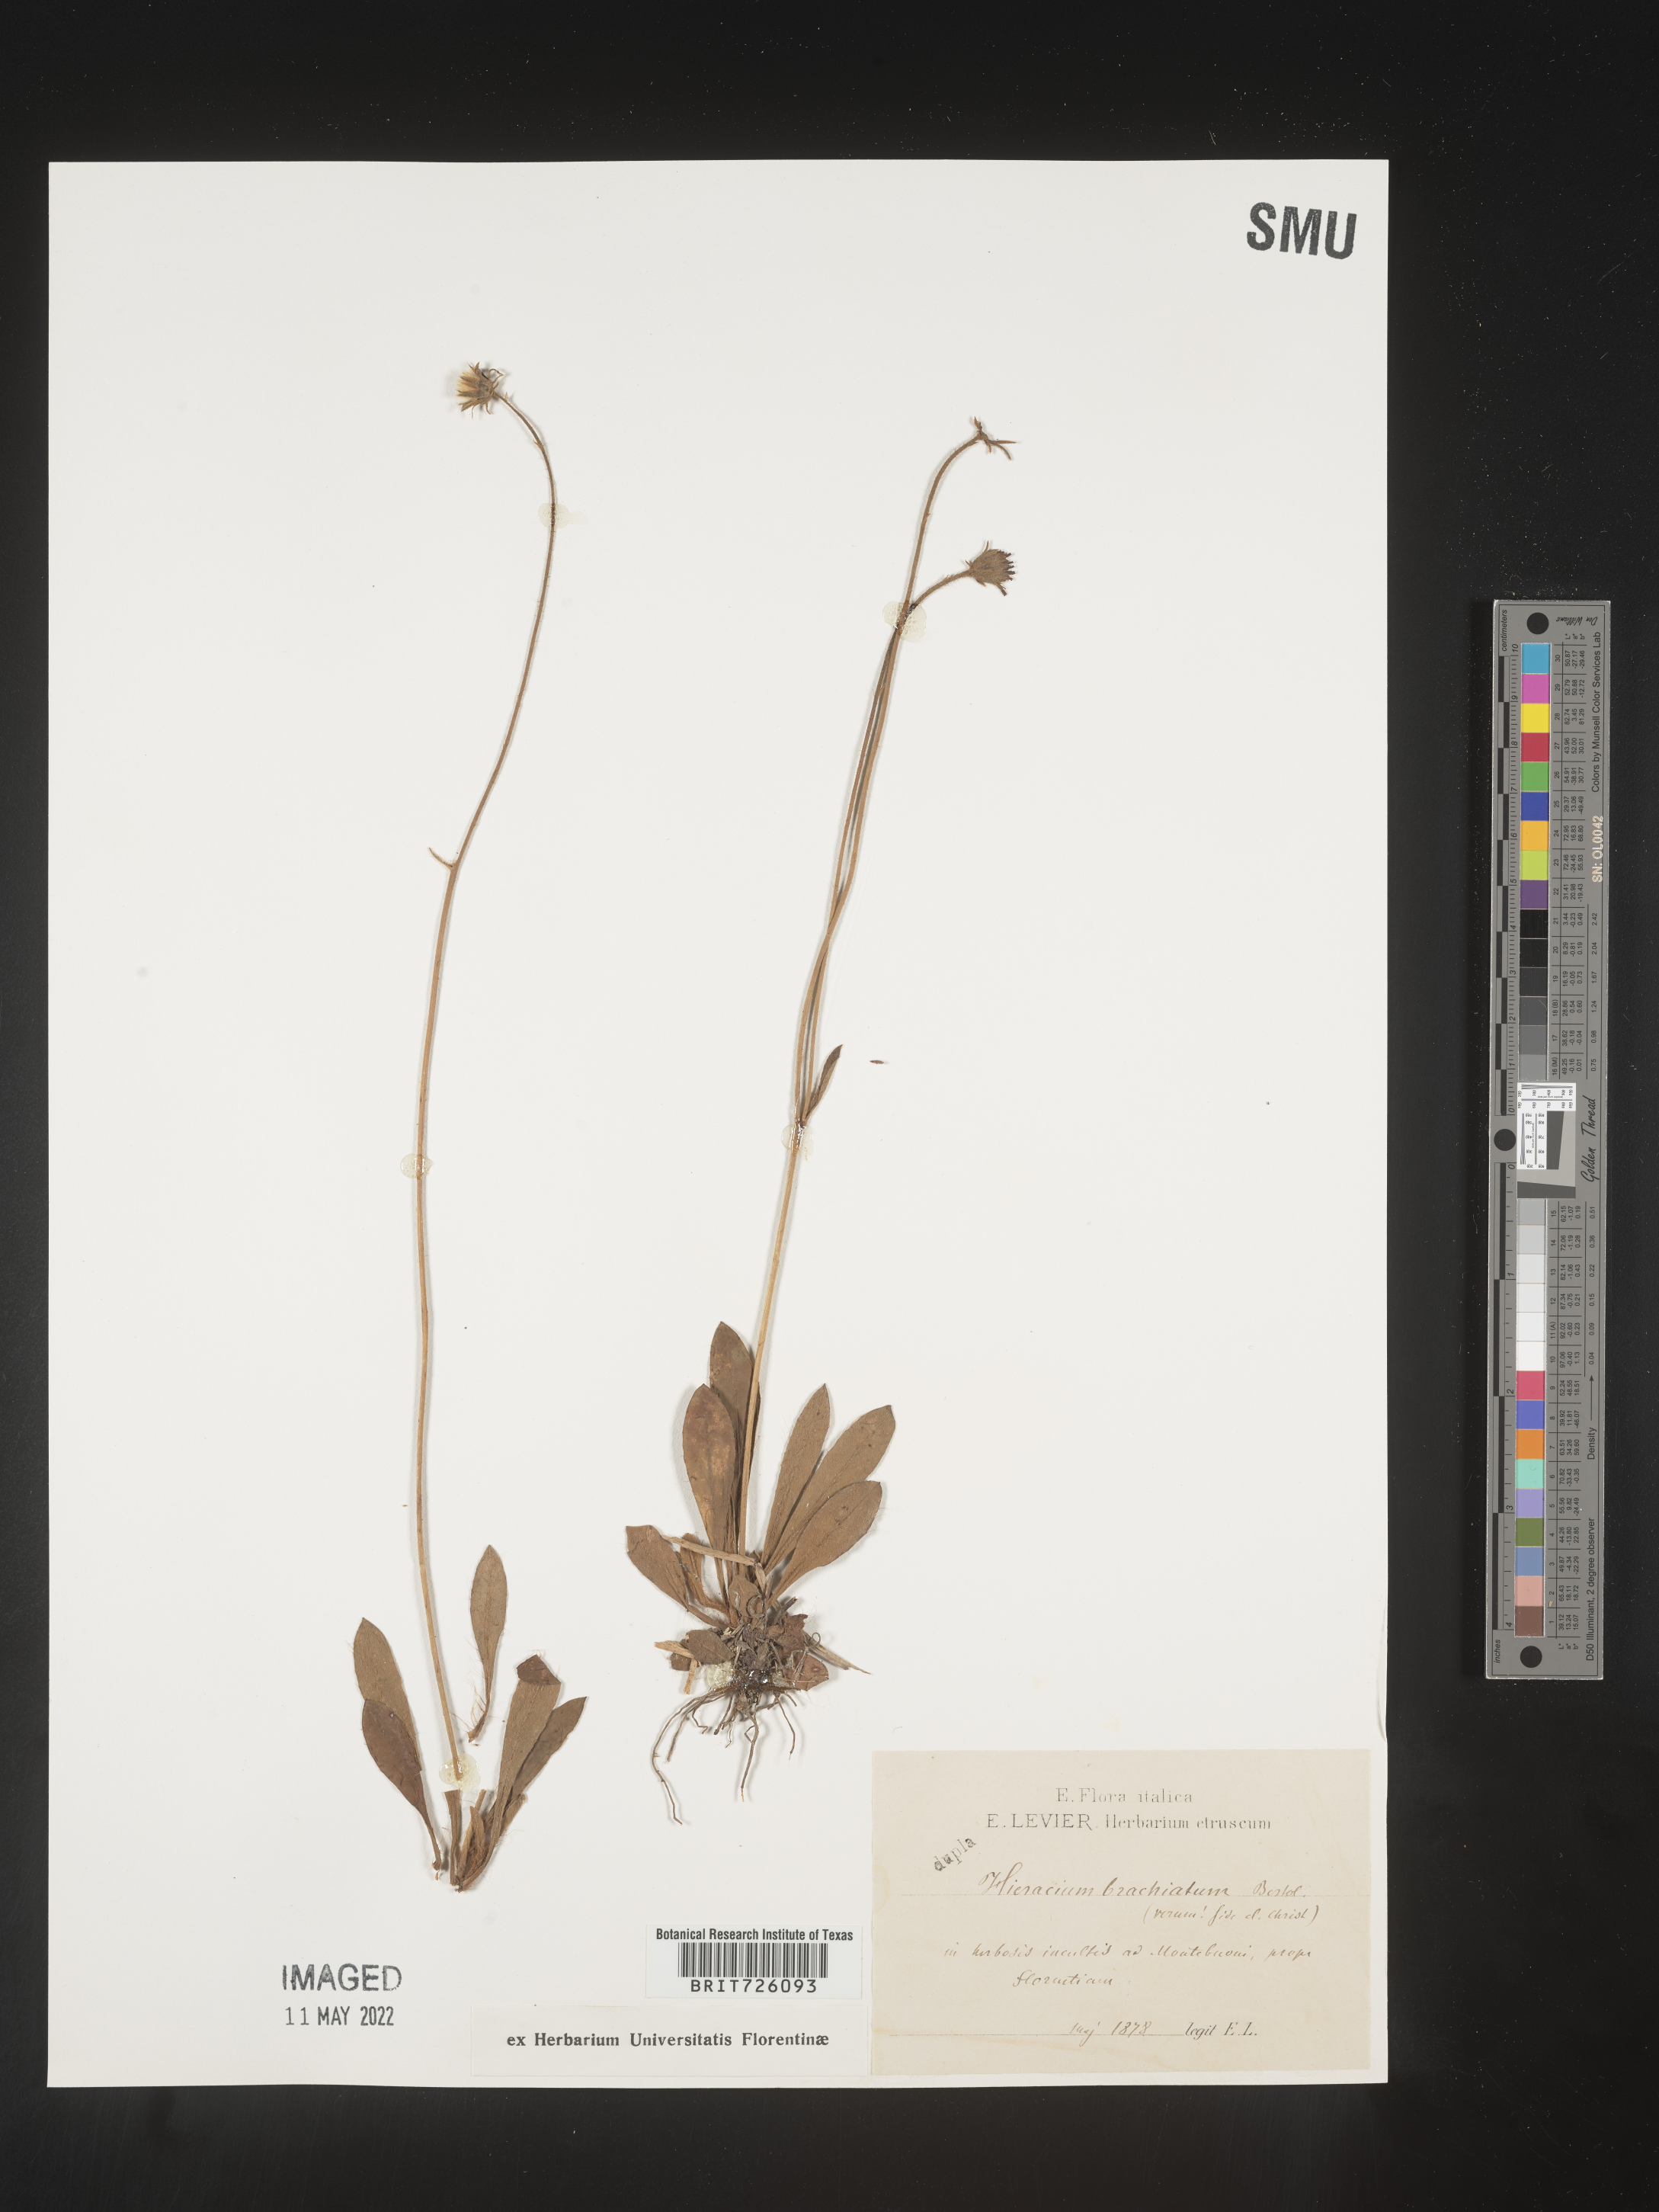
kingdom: Plantae
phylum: Tracheophyta
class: Magnoliopsida
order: Asterales
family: Asteraceae
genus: Hieracium
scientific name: Hieracium
